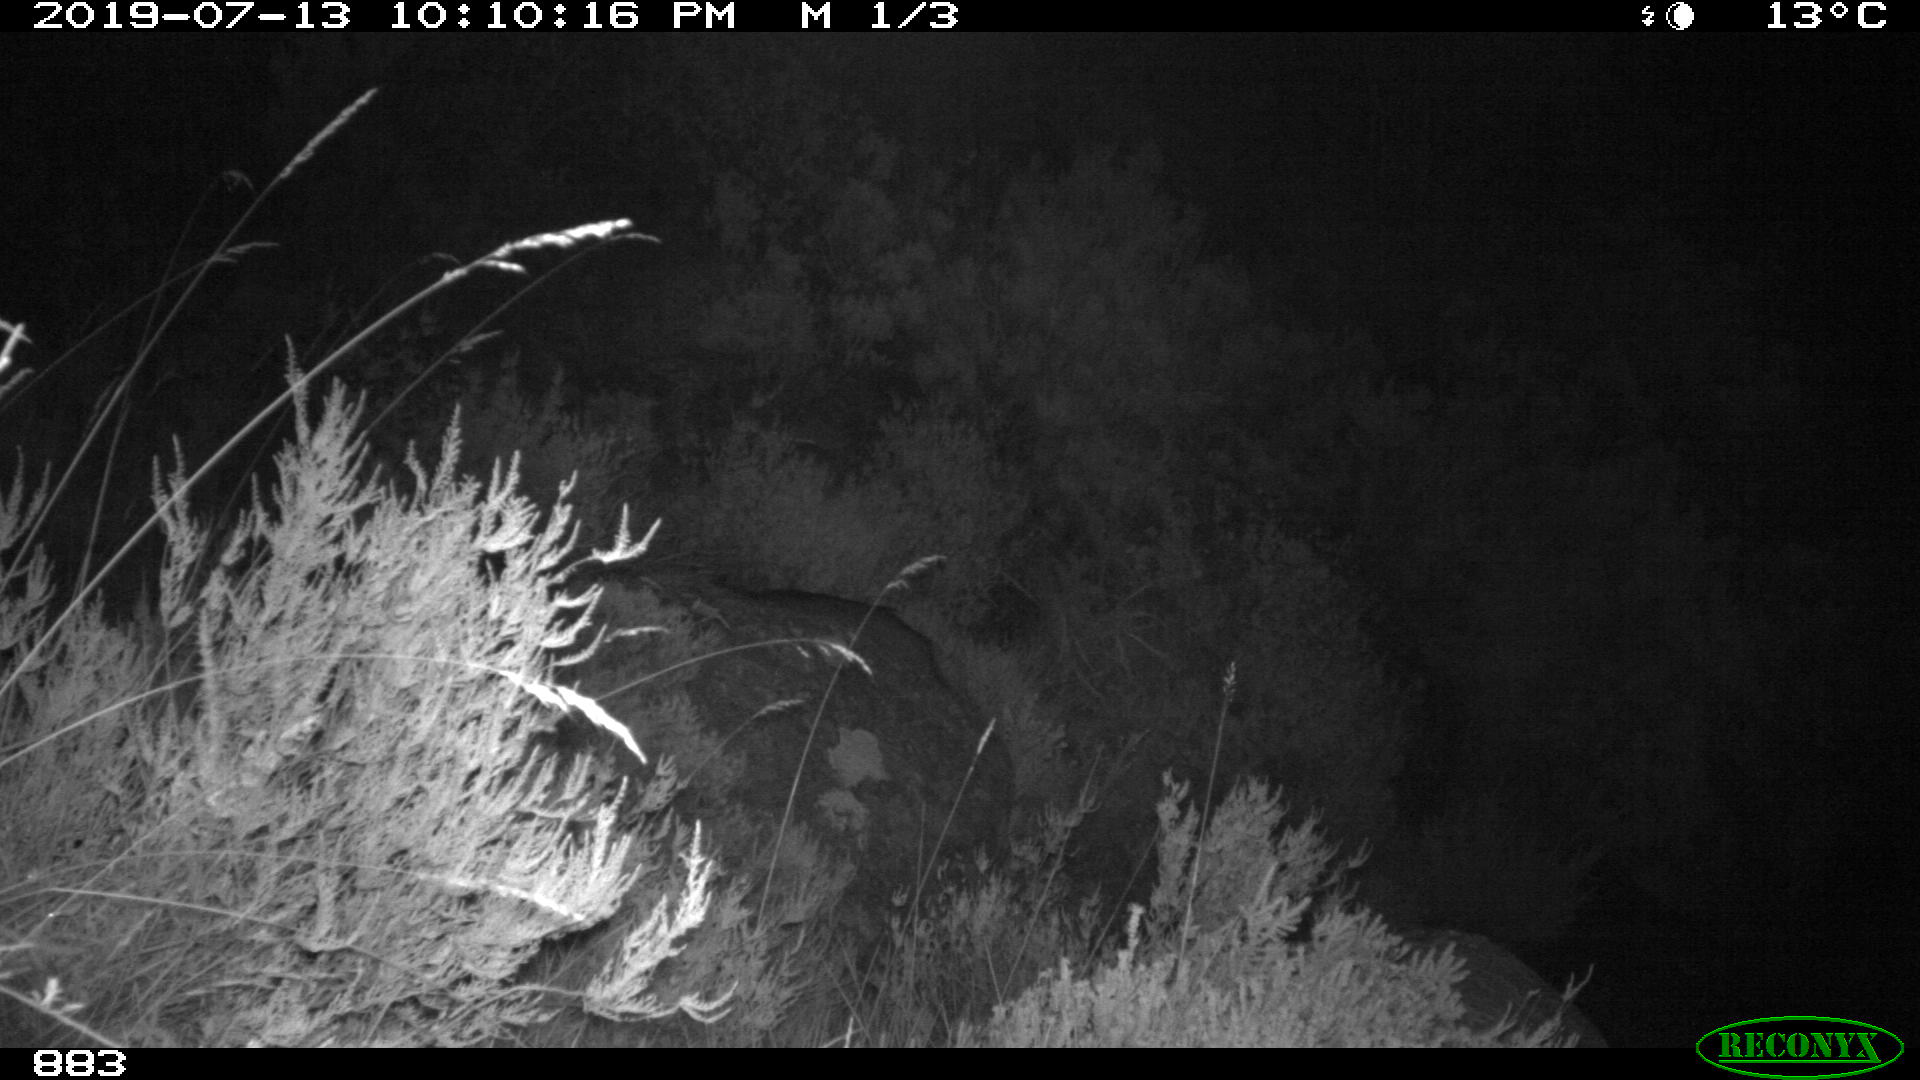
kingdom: Animalia
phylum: Chordata
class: Mammalia
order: Carnivora
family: Canidae
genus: Canis
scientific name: Canis lupus
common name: Gray wolf
